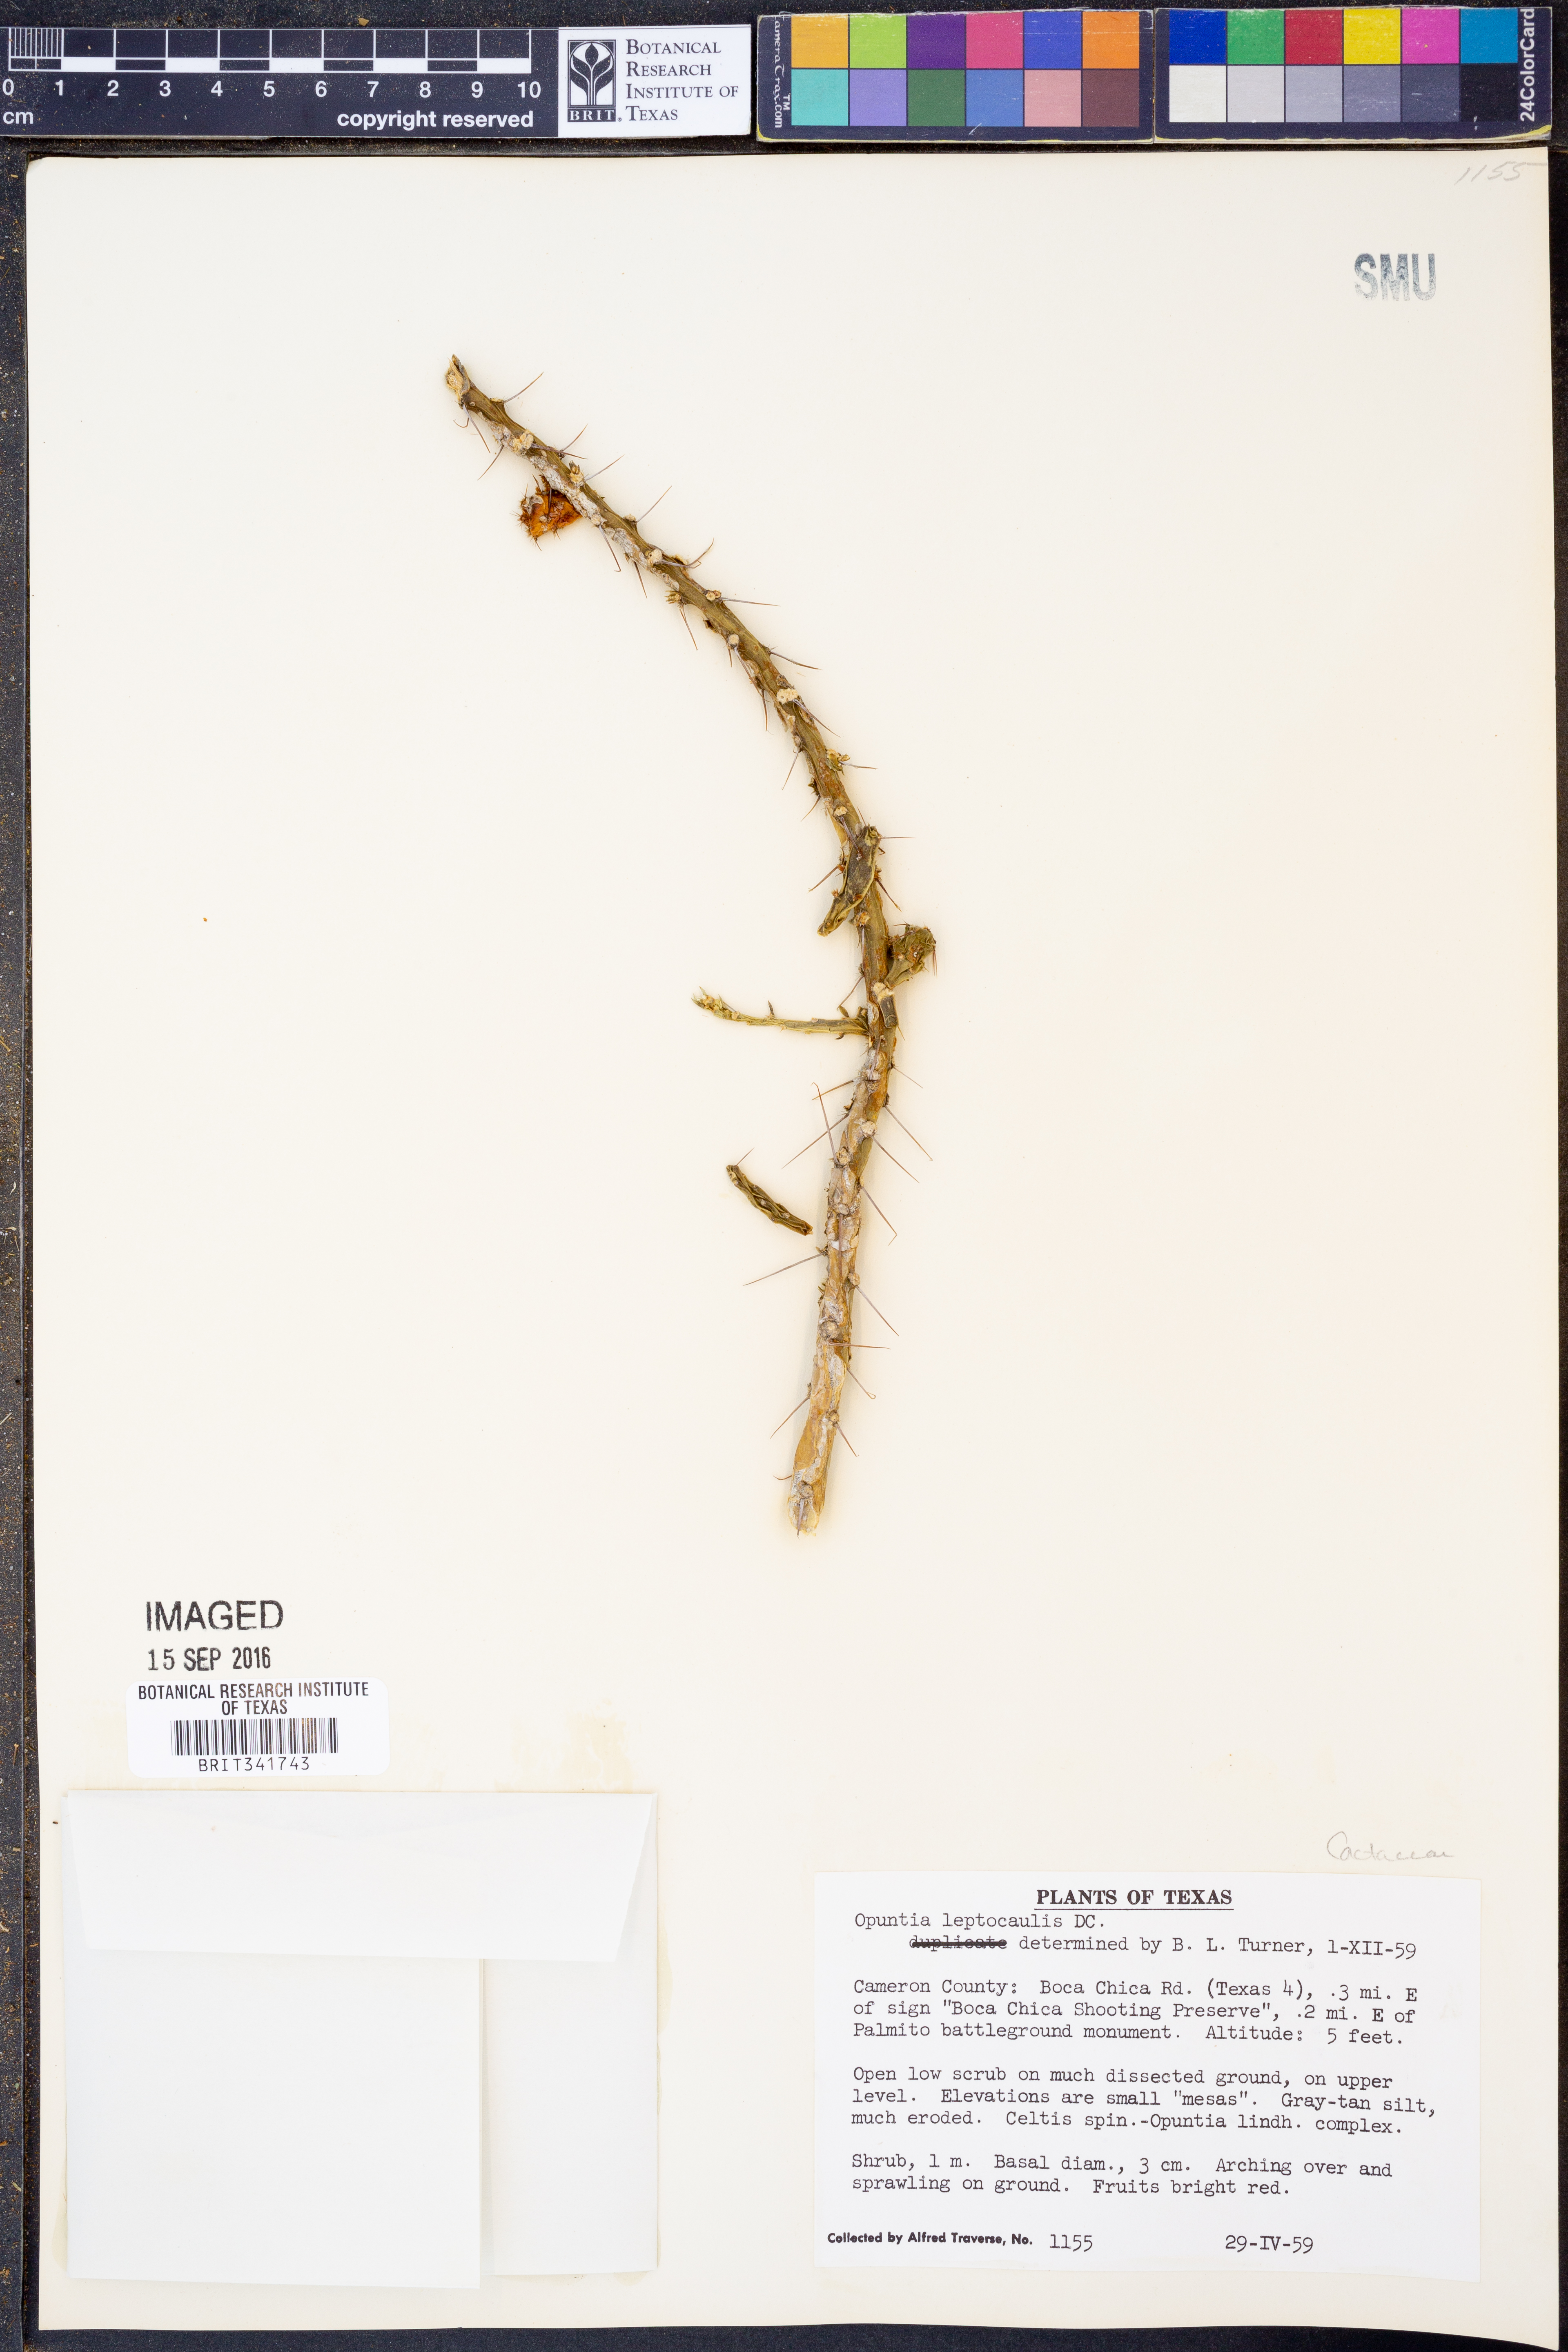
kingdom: Plantae
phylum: Tracheophyta
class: Magnoliopsida
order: Caryophyllales
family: Cactaceae
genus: Cylindropuntia
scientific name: Cylindropuntia leptocaulis
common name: Christmas cactus
